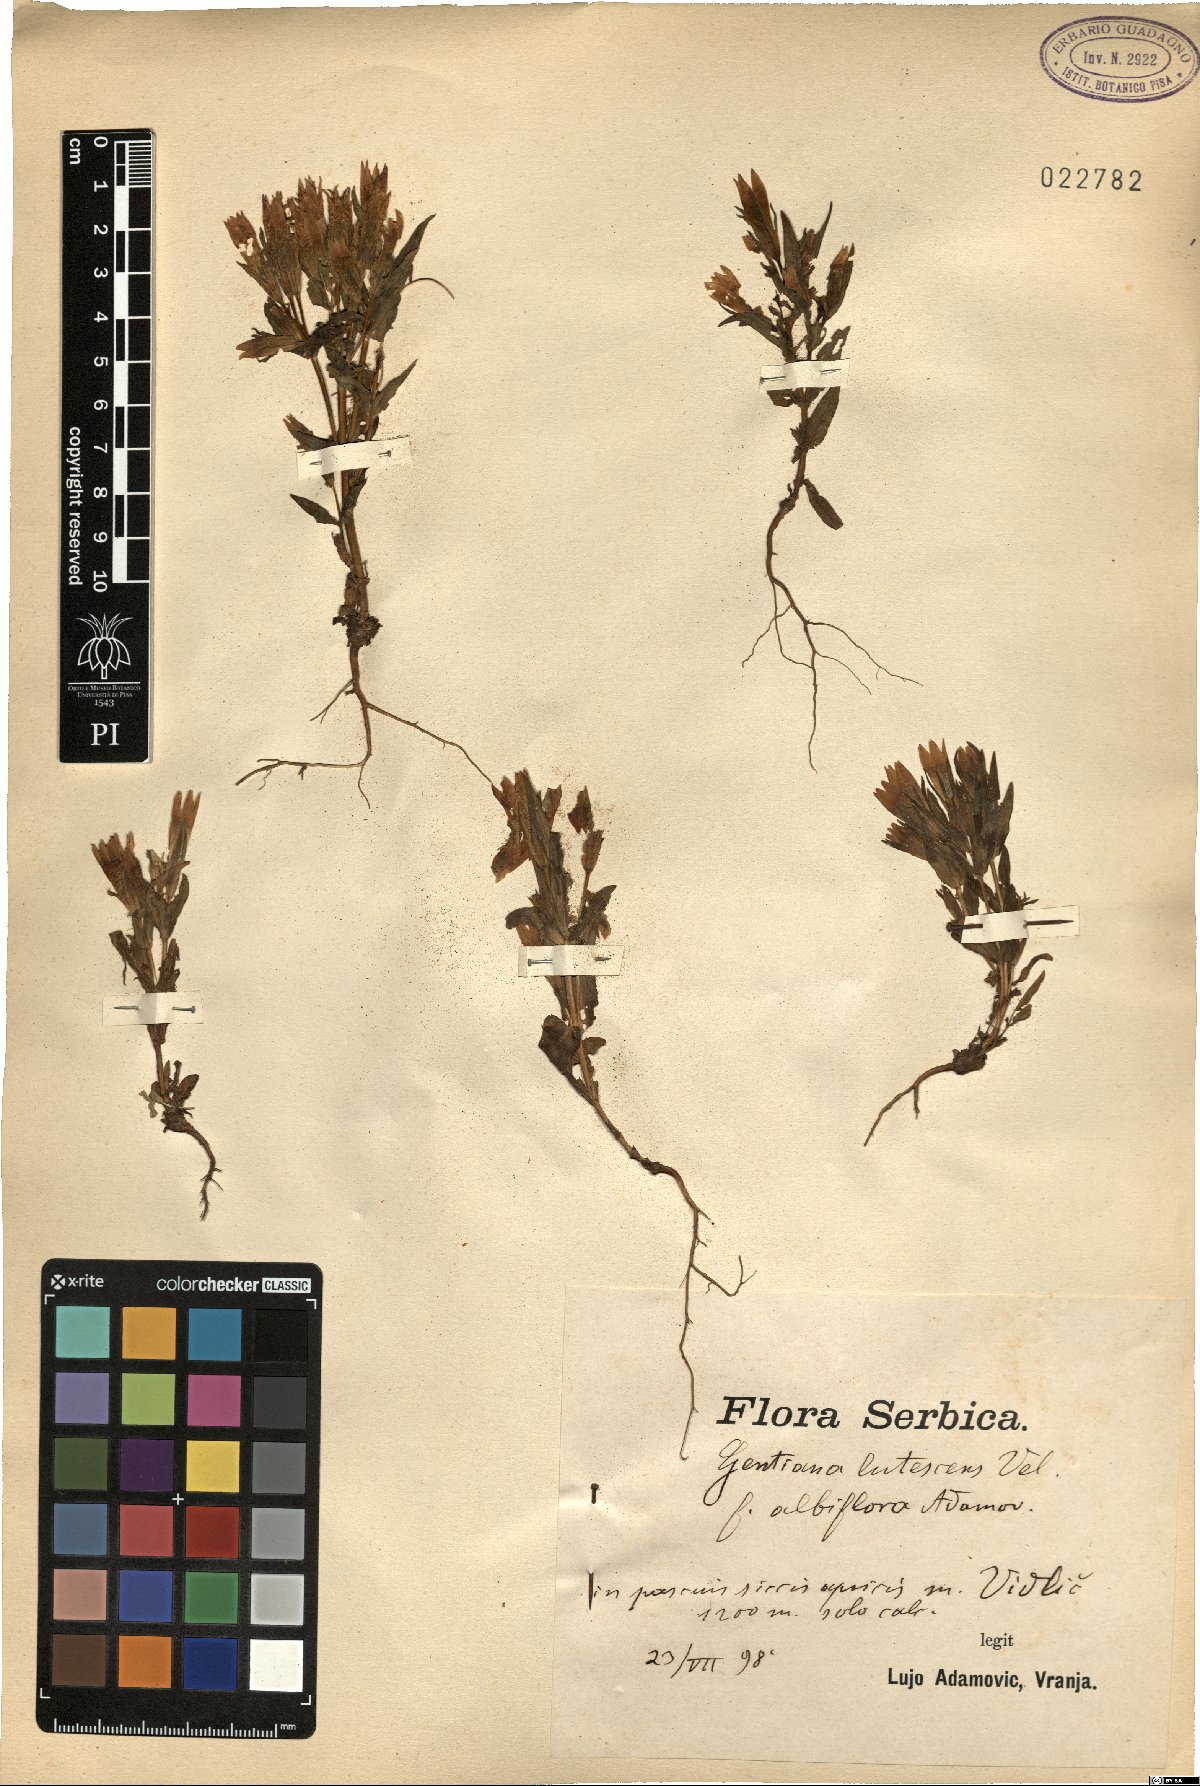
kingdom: Plantae
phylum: Tracheophyta
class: Magnoliopsida
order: Gentianales
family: Gentianaceae
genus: Gentianella
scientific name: Gentianella praecox
